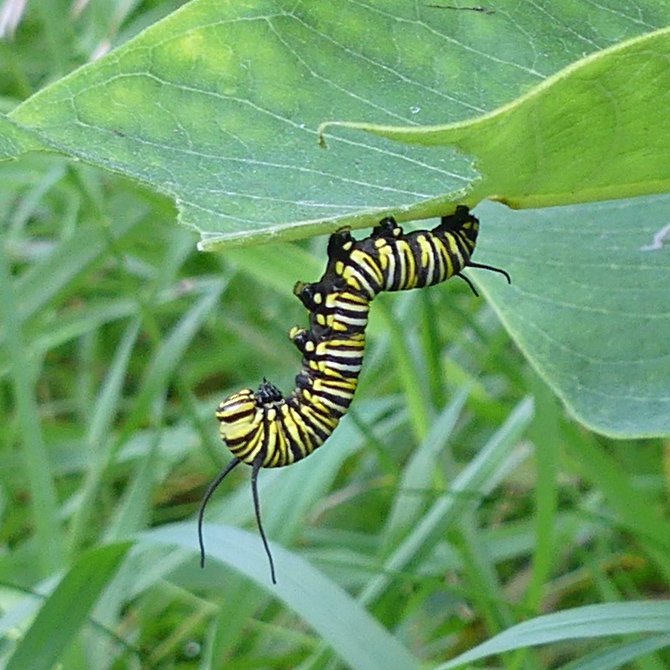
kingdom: Animalia
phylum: Arthropoda
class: Insecta
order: Lepidoptera
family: Nymphalidae
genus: Danaus
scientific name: Danaus plexippus
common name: Monarch
